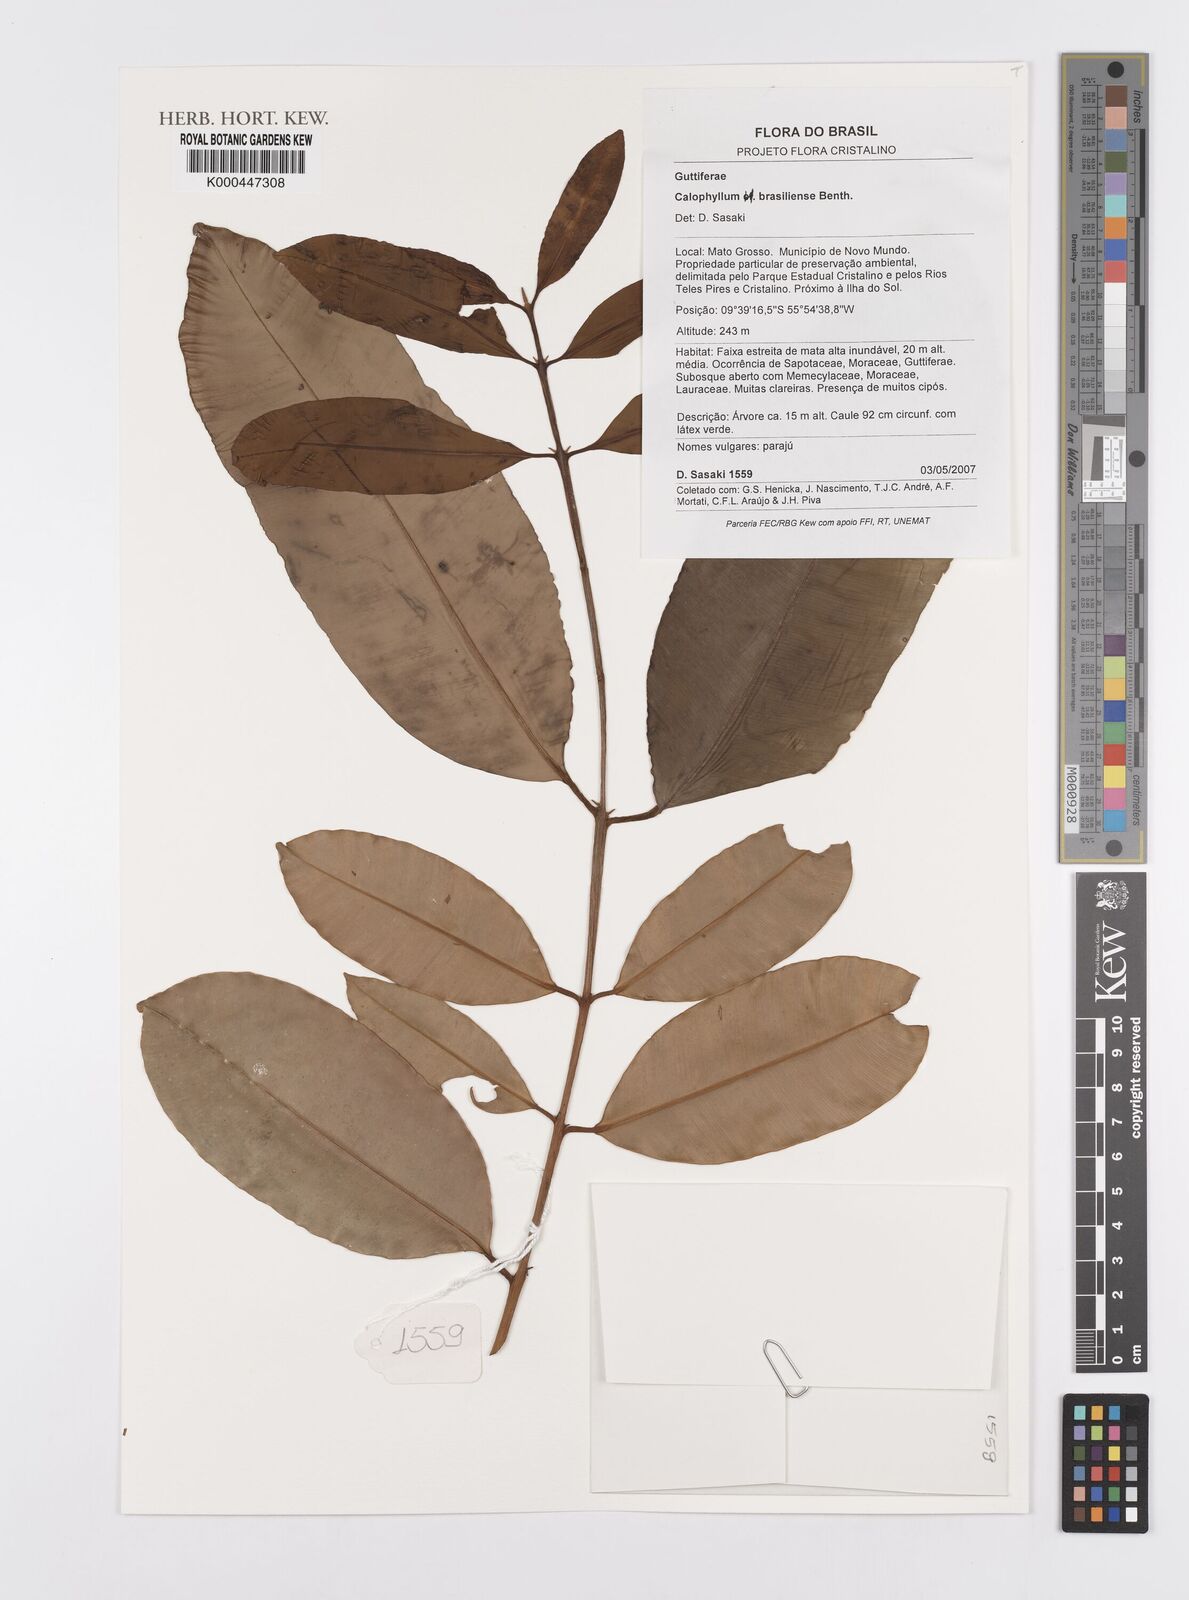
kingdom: Plantae
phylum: Tracheophyta
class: Magnoliopsida
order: Malpighiales
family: Calophyllaceae
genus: Calophyllum
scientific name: Calophyllum brasiliense
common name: Santa maria
